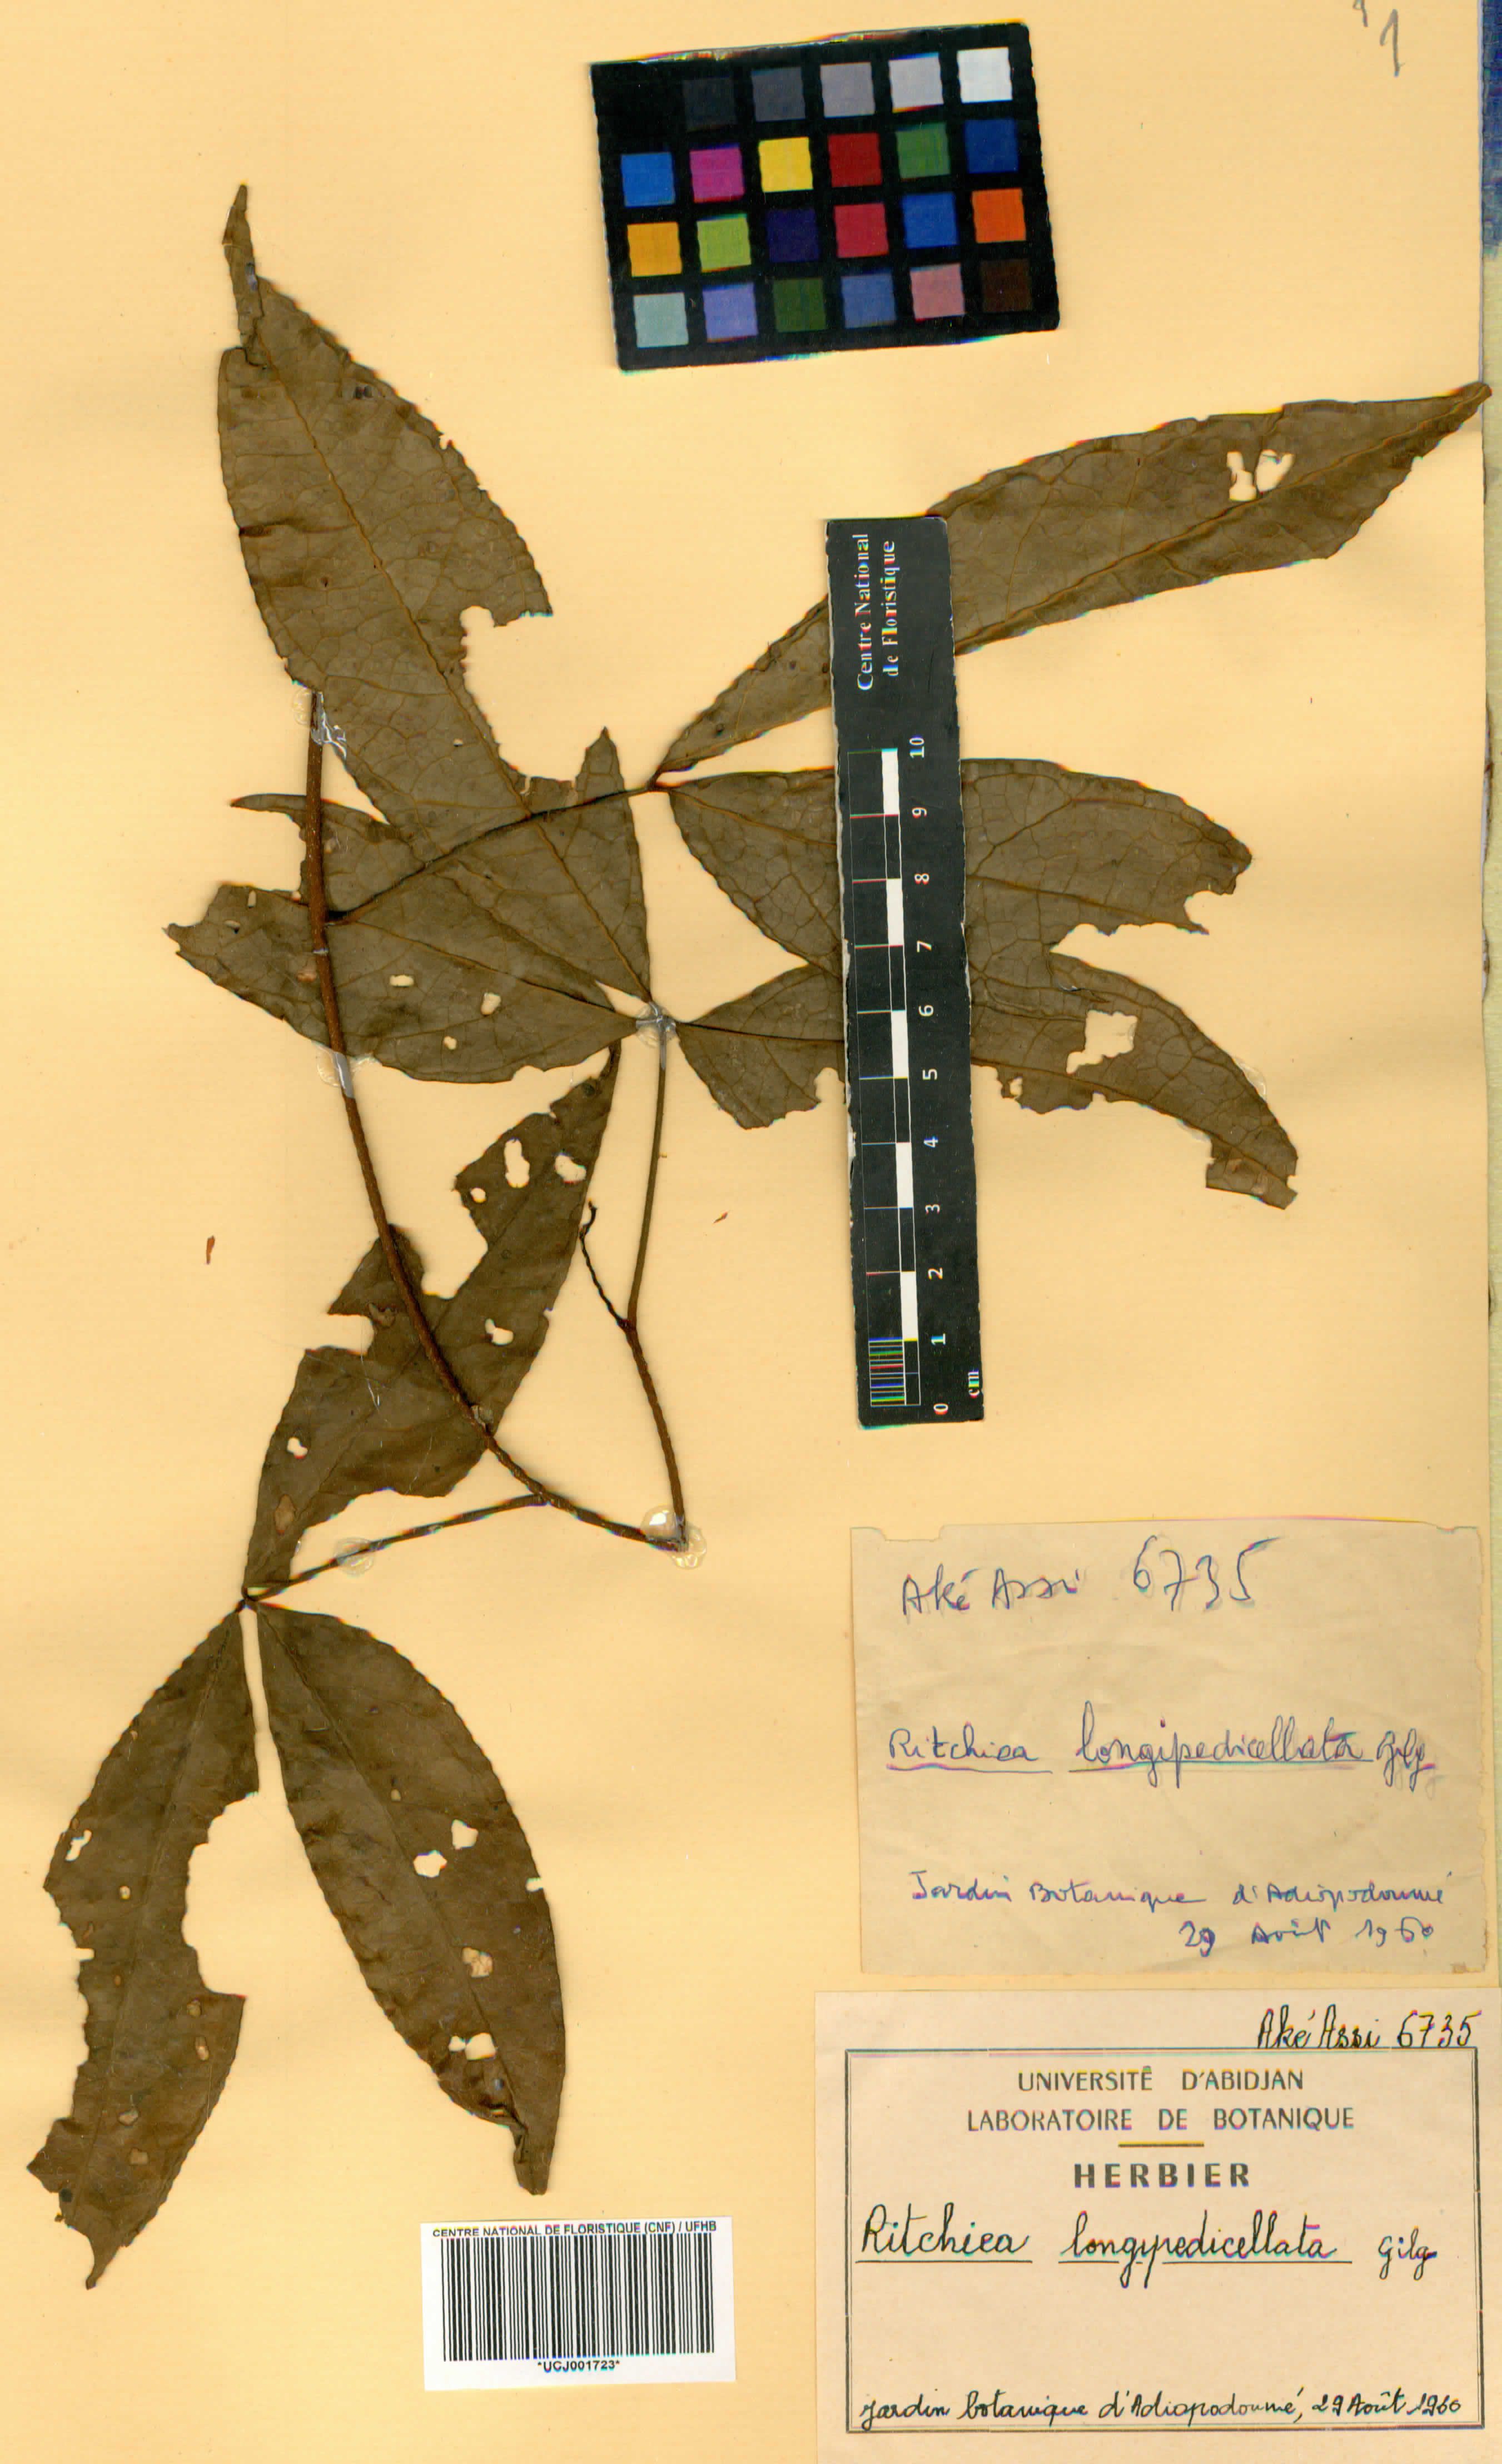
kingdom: Plantae
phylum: Tracheophyta
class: Magnoliopsida
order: Brassicales
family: Capparaceae
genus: Ritchiea
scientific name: Ritchiea capparoides
